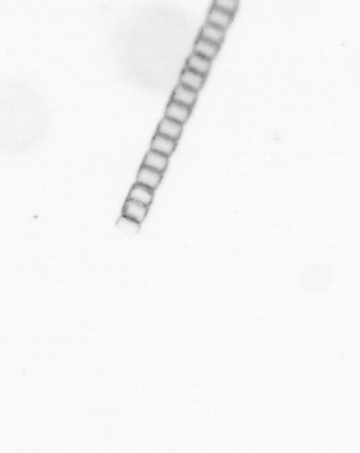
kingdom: Chromista
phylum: Ochrophyta
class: Bacillariophyceae
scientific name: Bacillariophyceae
